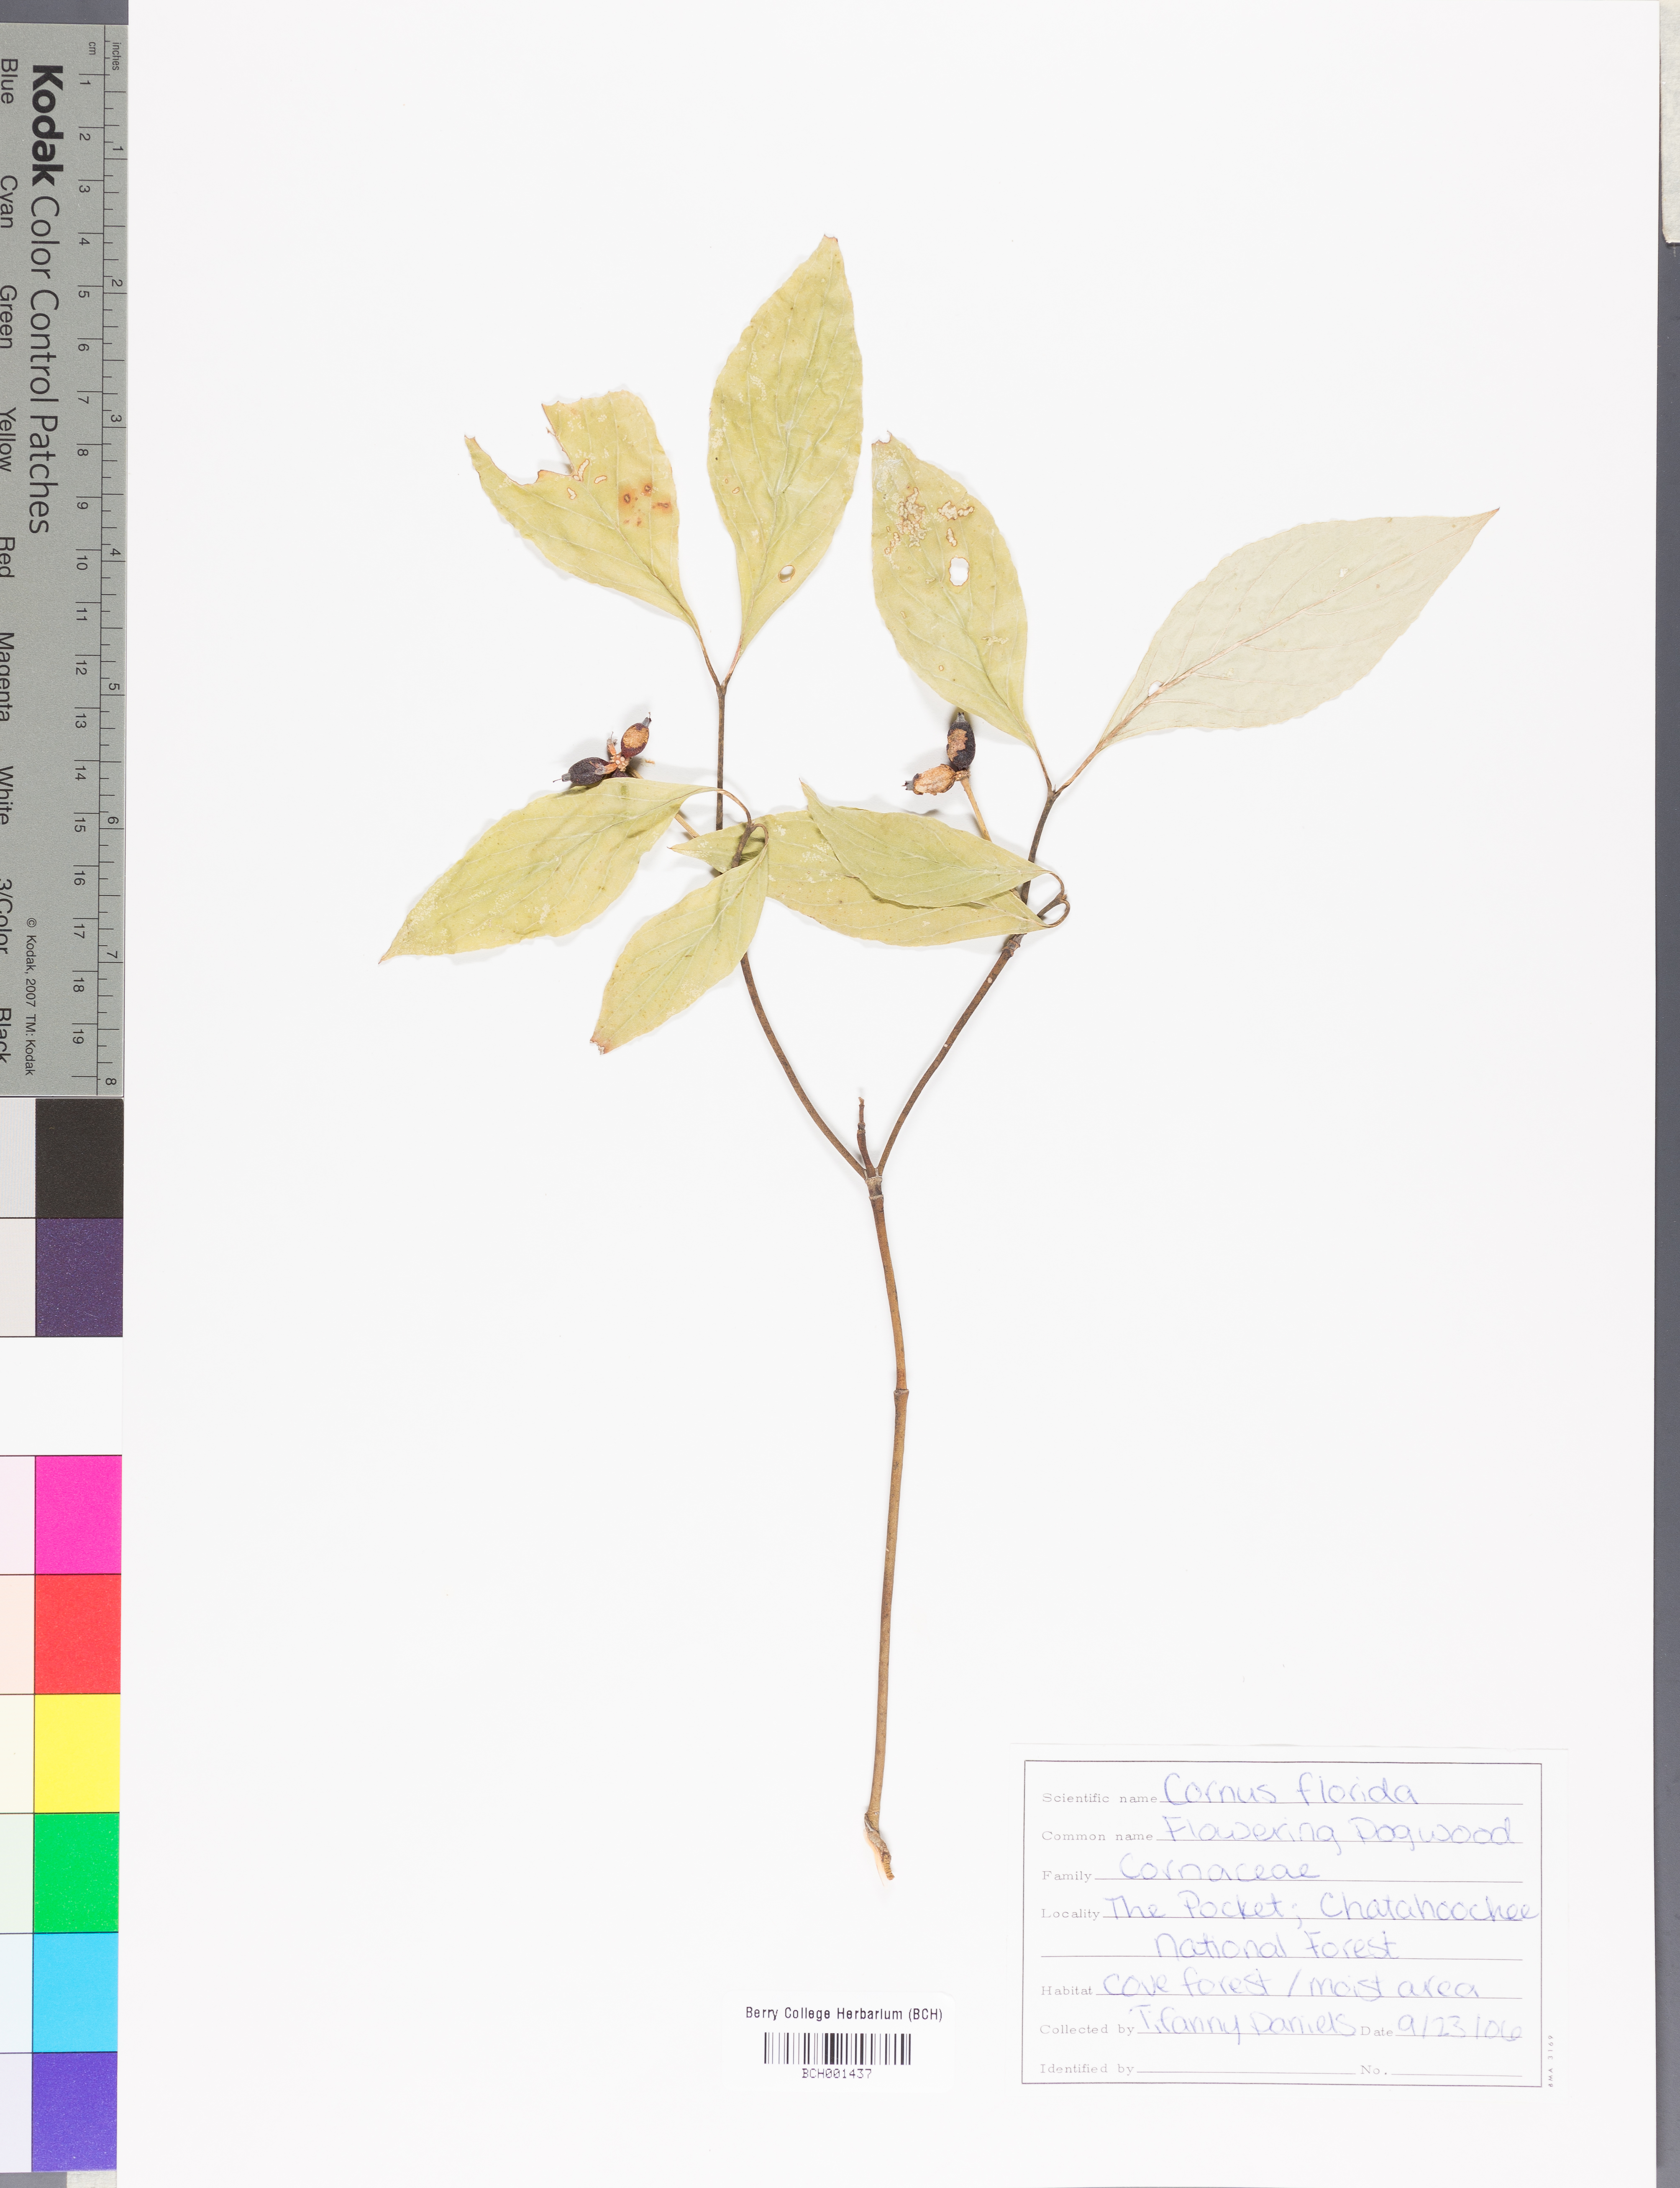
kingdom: Plantae
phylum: Tracheophyta
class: Magnoliopsida
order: Cornales
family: Cornaceae
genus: Cornus
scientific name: Cornus florida
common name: Flowering dogwood
